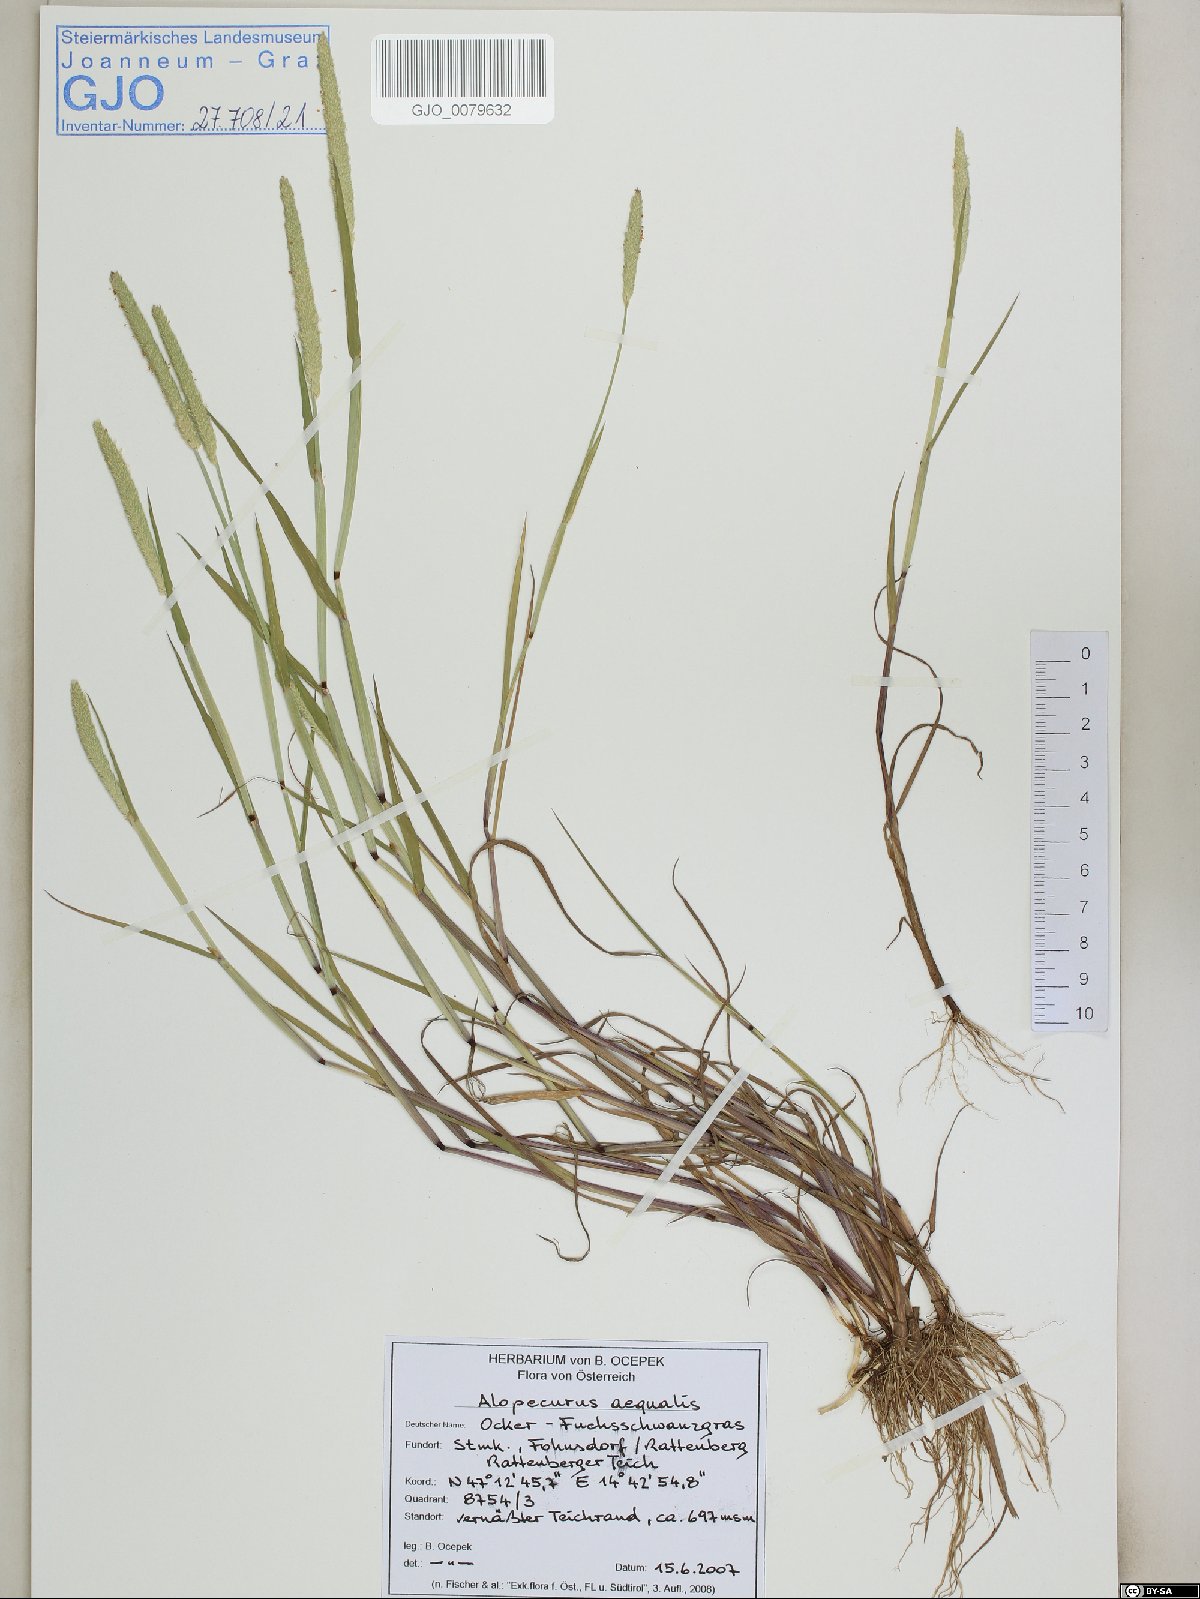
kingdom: Plantae
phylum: Tracheophyta
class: Liliopsida
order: Poales
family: Poaceae
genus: Alopecurus
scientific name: Alopecurus aequalis
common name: Orange foxtail
